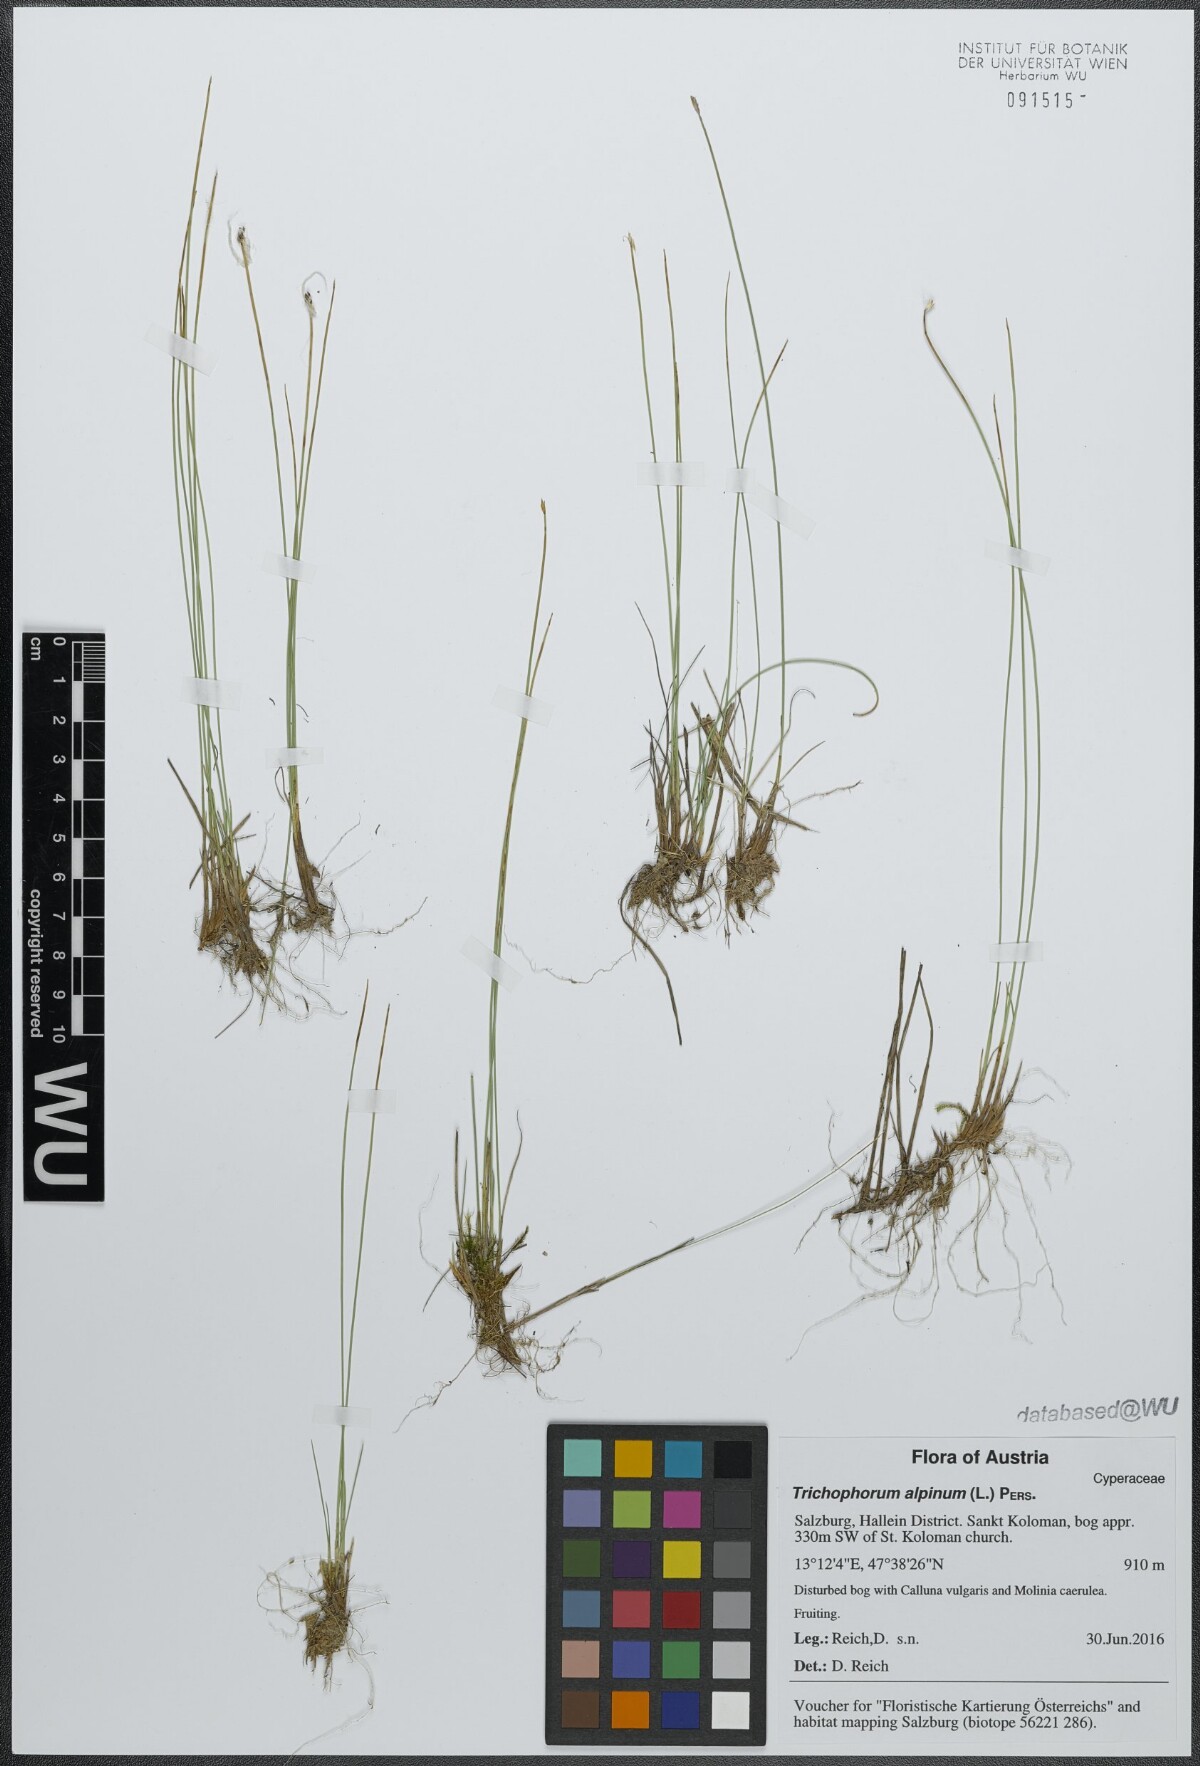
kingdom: Plantae
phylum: Tracheophyta
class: Liliopsida
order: Poales
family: Cyperaceae
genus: Trichophorum
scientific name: Trichophorum alpinum
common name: Alpine bulrush
